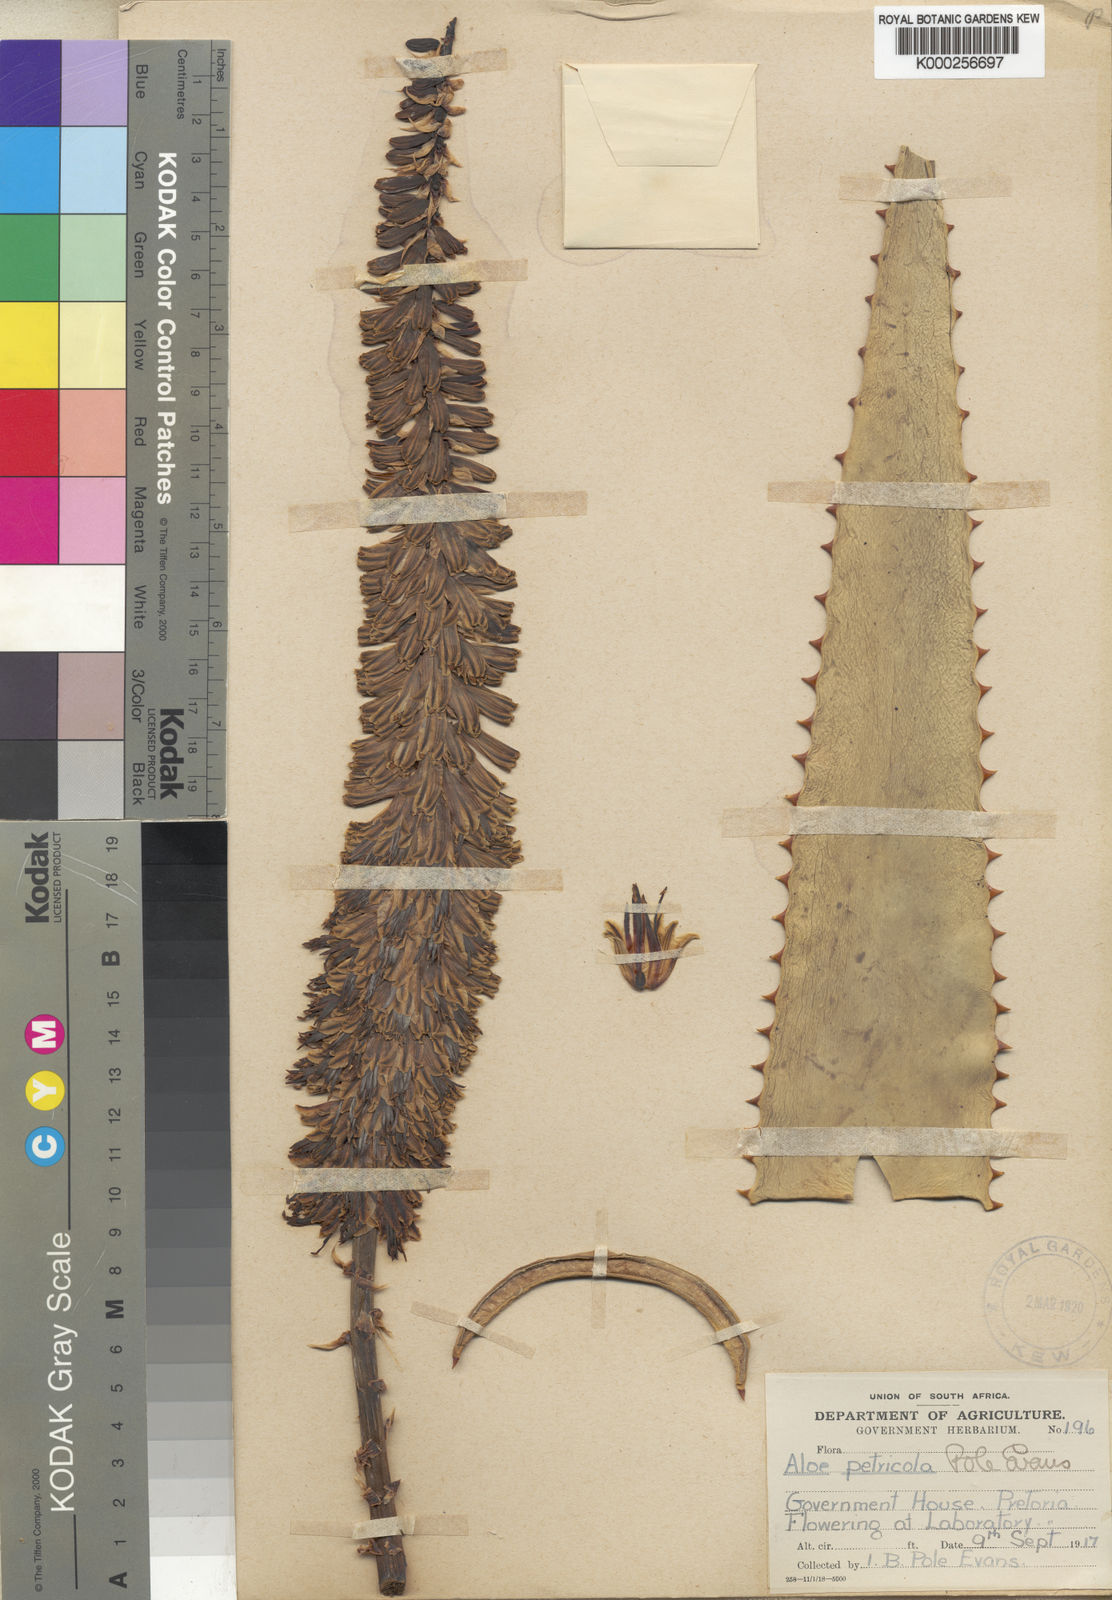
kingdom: Plantae
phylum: Tracheophyta
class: Liliopsida
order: Asparagales
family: Asphodelaceae
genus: Aloe
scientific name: Aloe petricola
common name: Rock aloe
